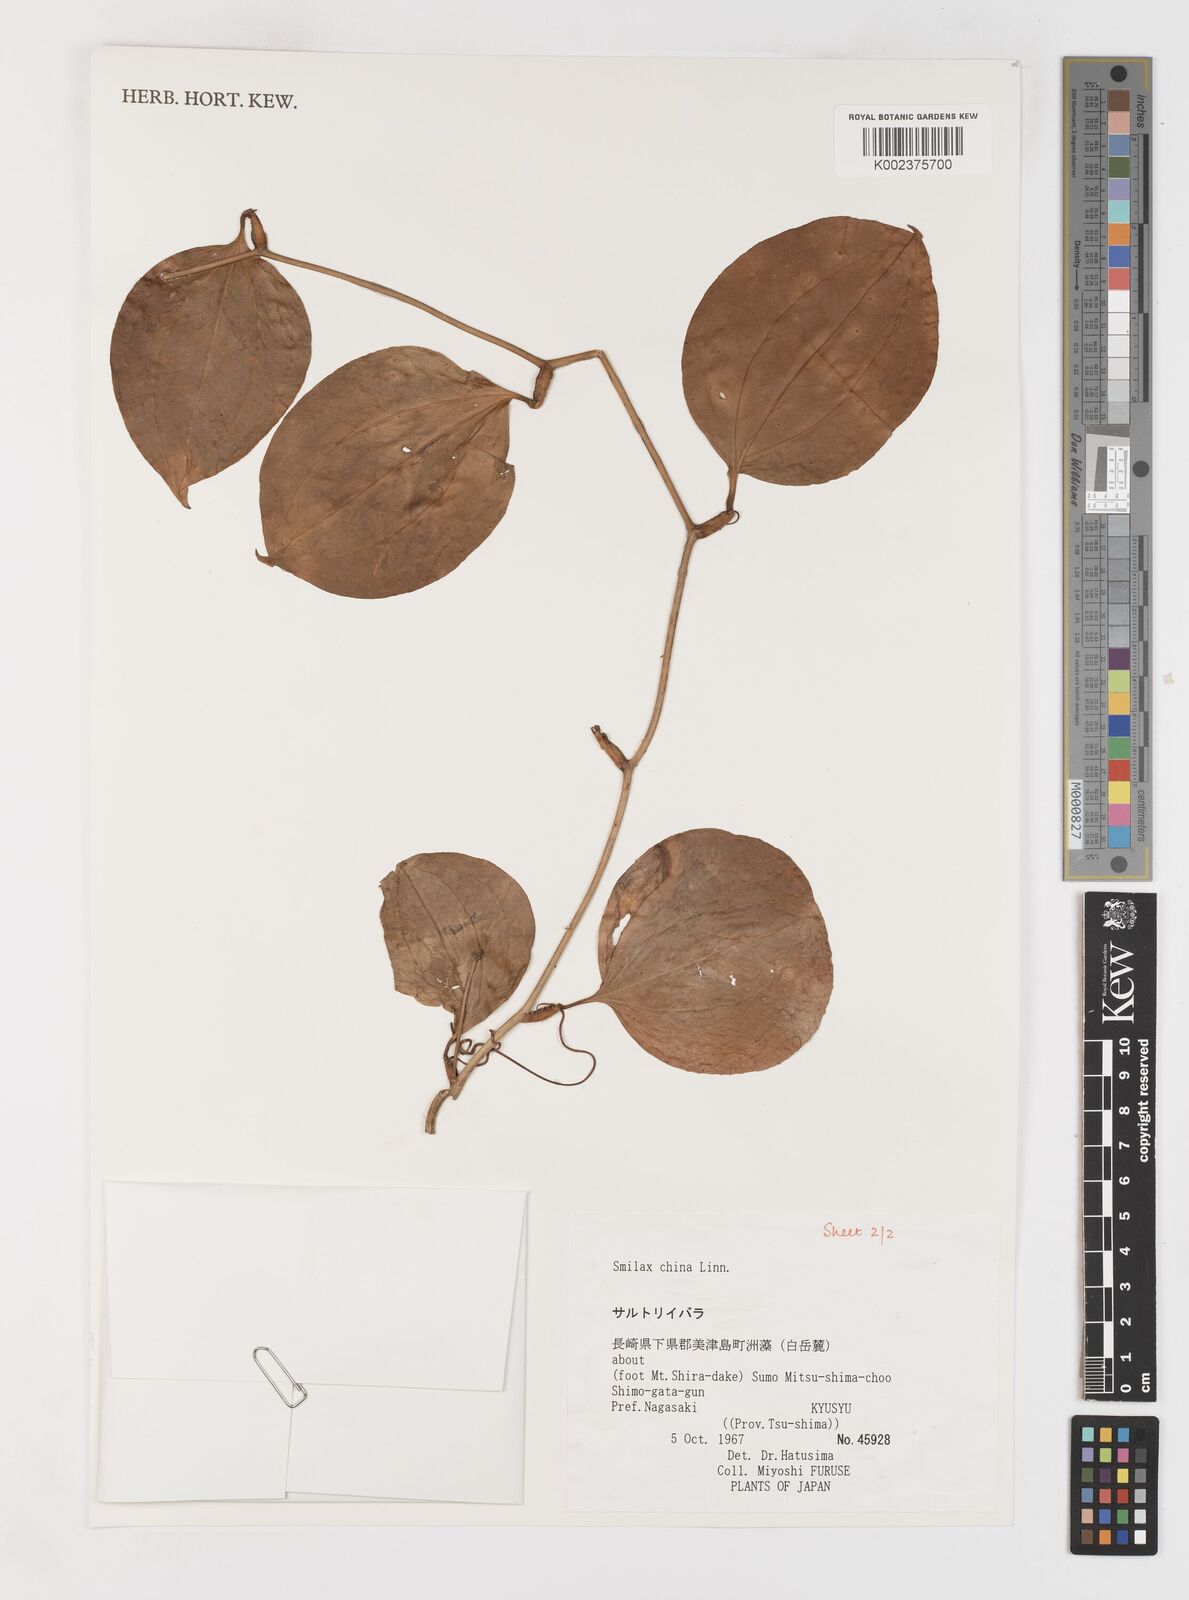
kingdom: Plantae
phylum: Tracheophyta
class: Liliopsida
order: Liliales
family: Smilacaceae
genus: Smilax
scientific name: Smilax china
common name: Chinaroot
